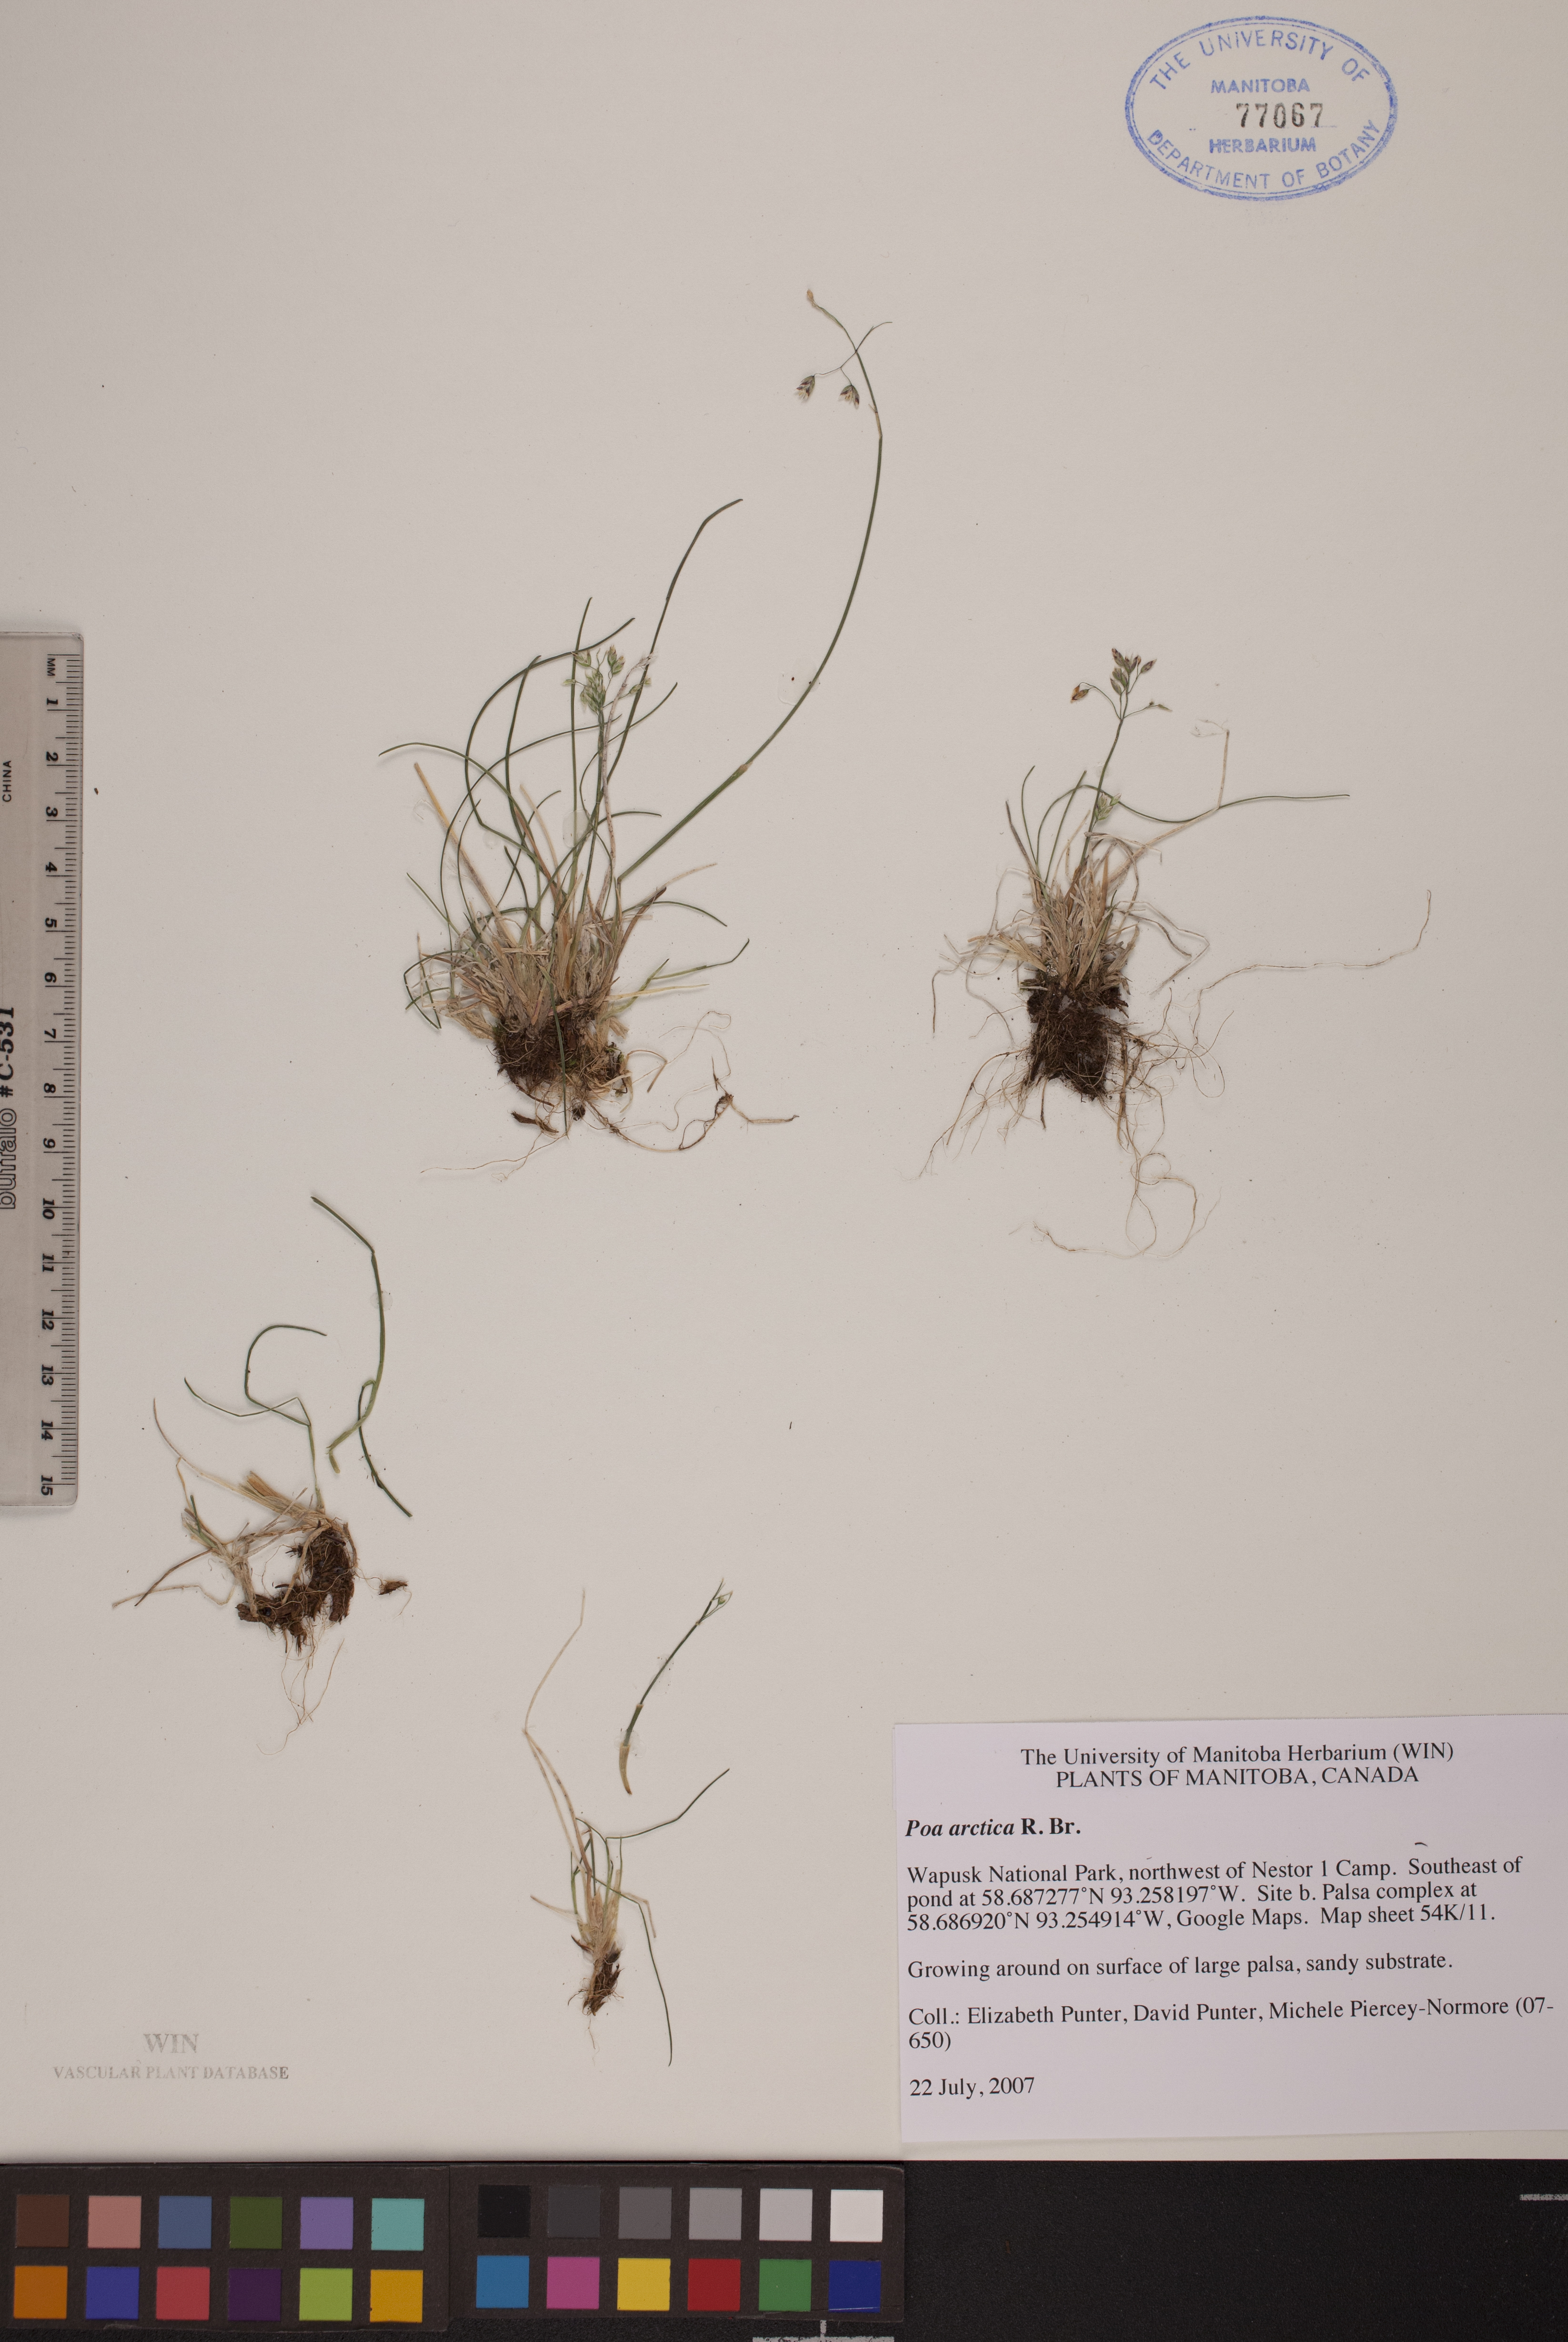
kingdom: Plantae
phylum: Tracheophyta
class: Liliopsida
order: Poales
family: Poaceae
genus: Poa
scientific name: Poa arctica
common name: Arctic bluegrass
